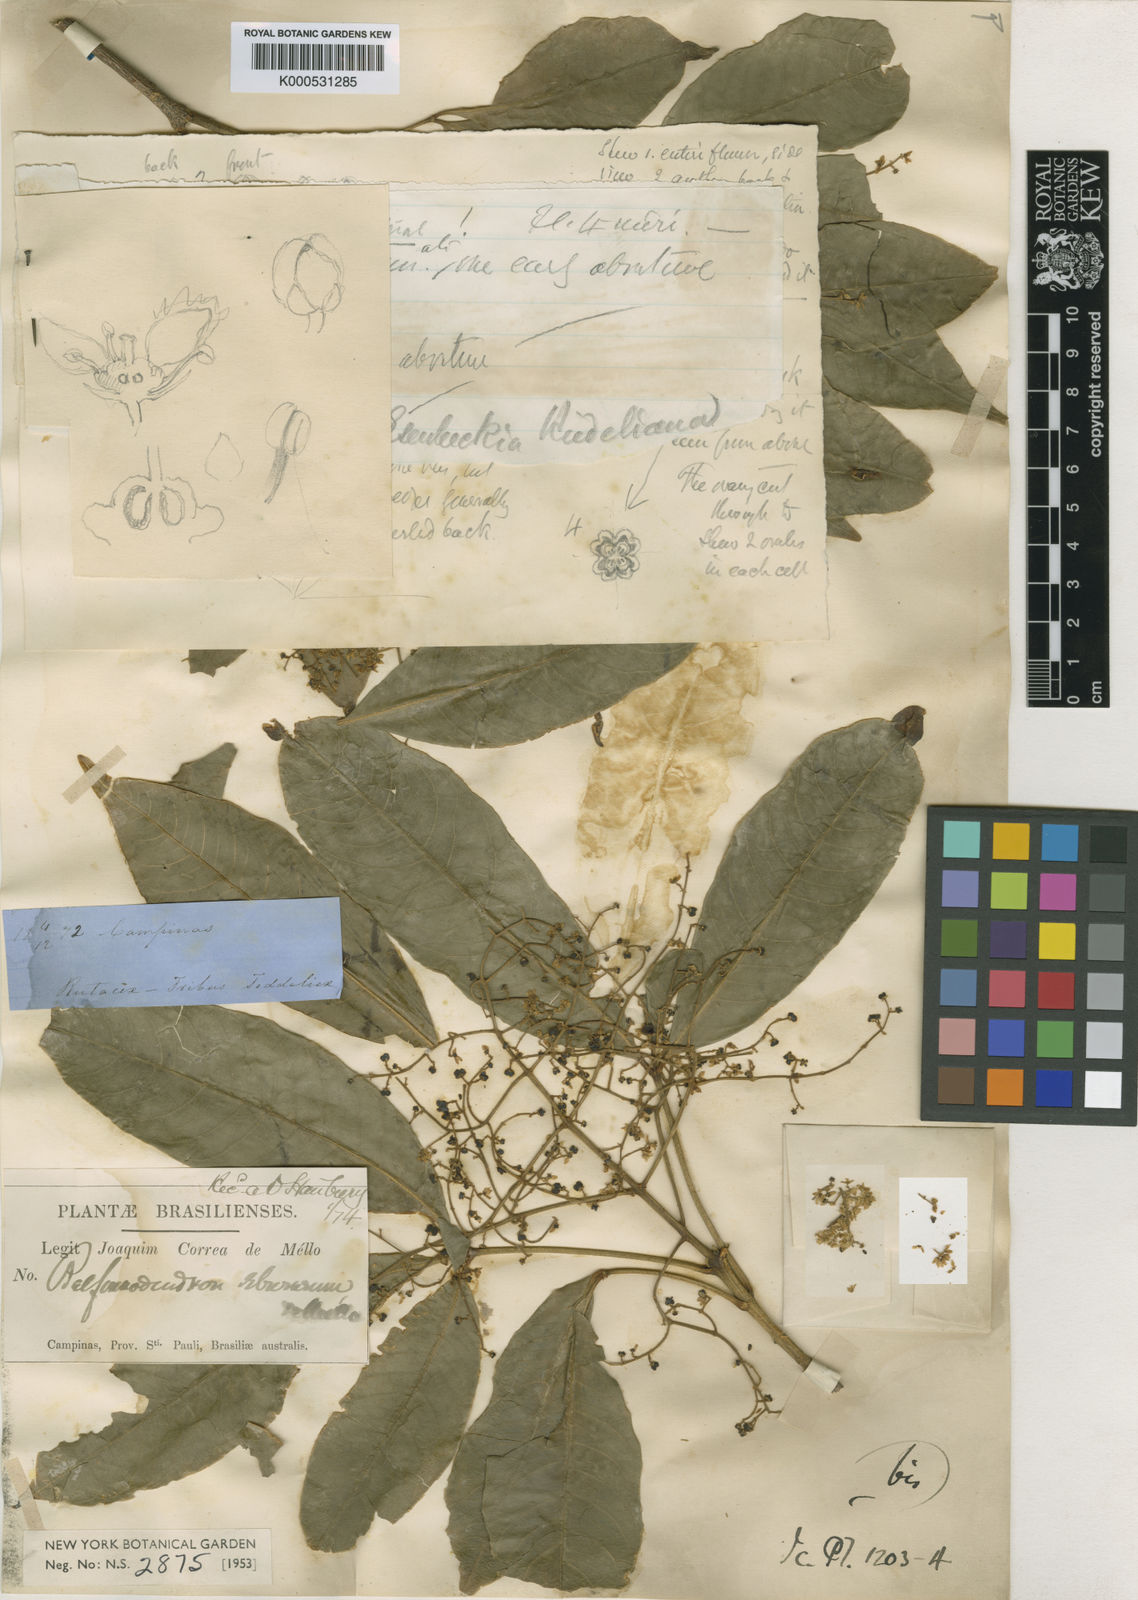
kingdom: Plantae
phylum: Tracheophyta
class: Magnoliopsida
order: Sapindales
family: Rutaceae
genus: Balfourodendron
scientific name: Balfourodendron riedelianum
